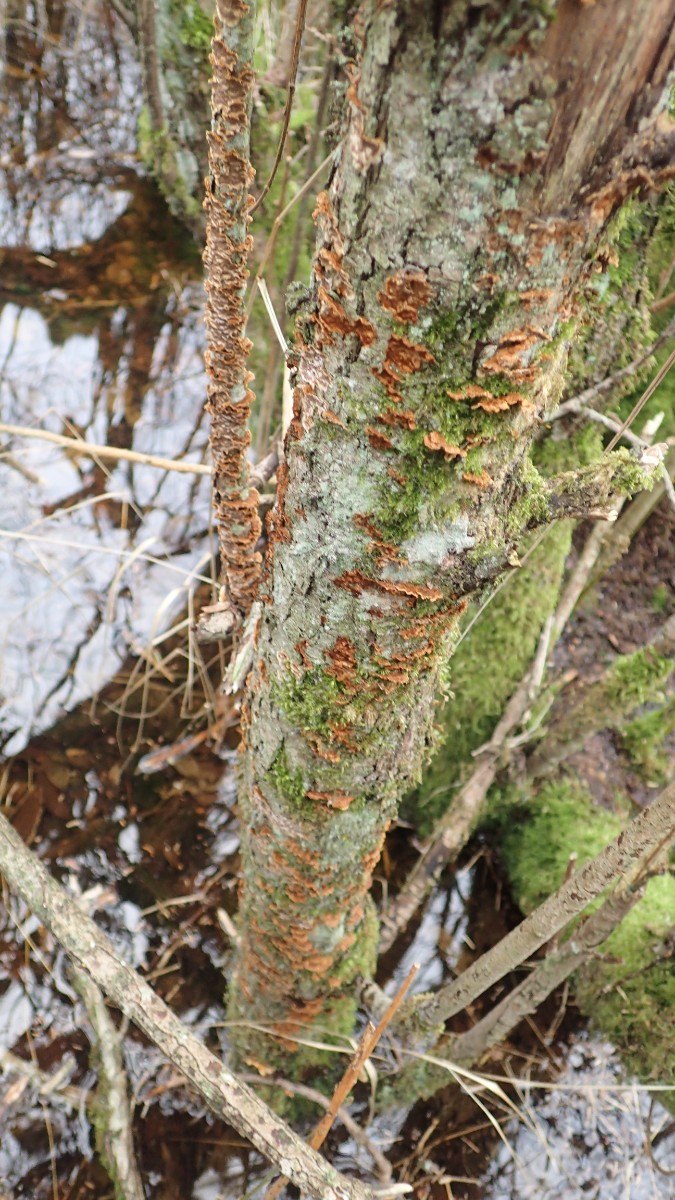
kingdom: Fungi
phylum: Basidiomycota
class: Agaricomycetes
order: Hymenochaetales
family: Hymenochaetaceae
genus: Hydnoporia
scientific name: Hydnoporia tabacina
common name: tobaksbrun ruslædersvamp
